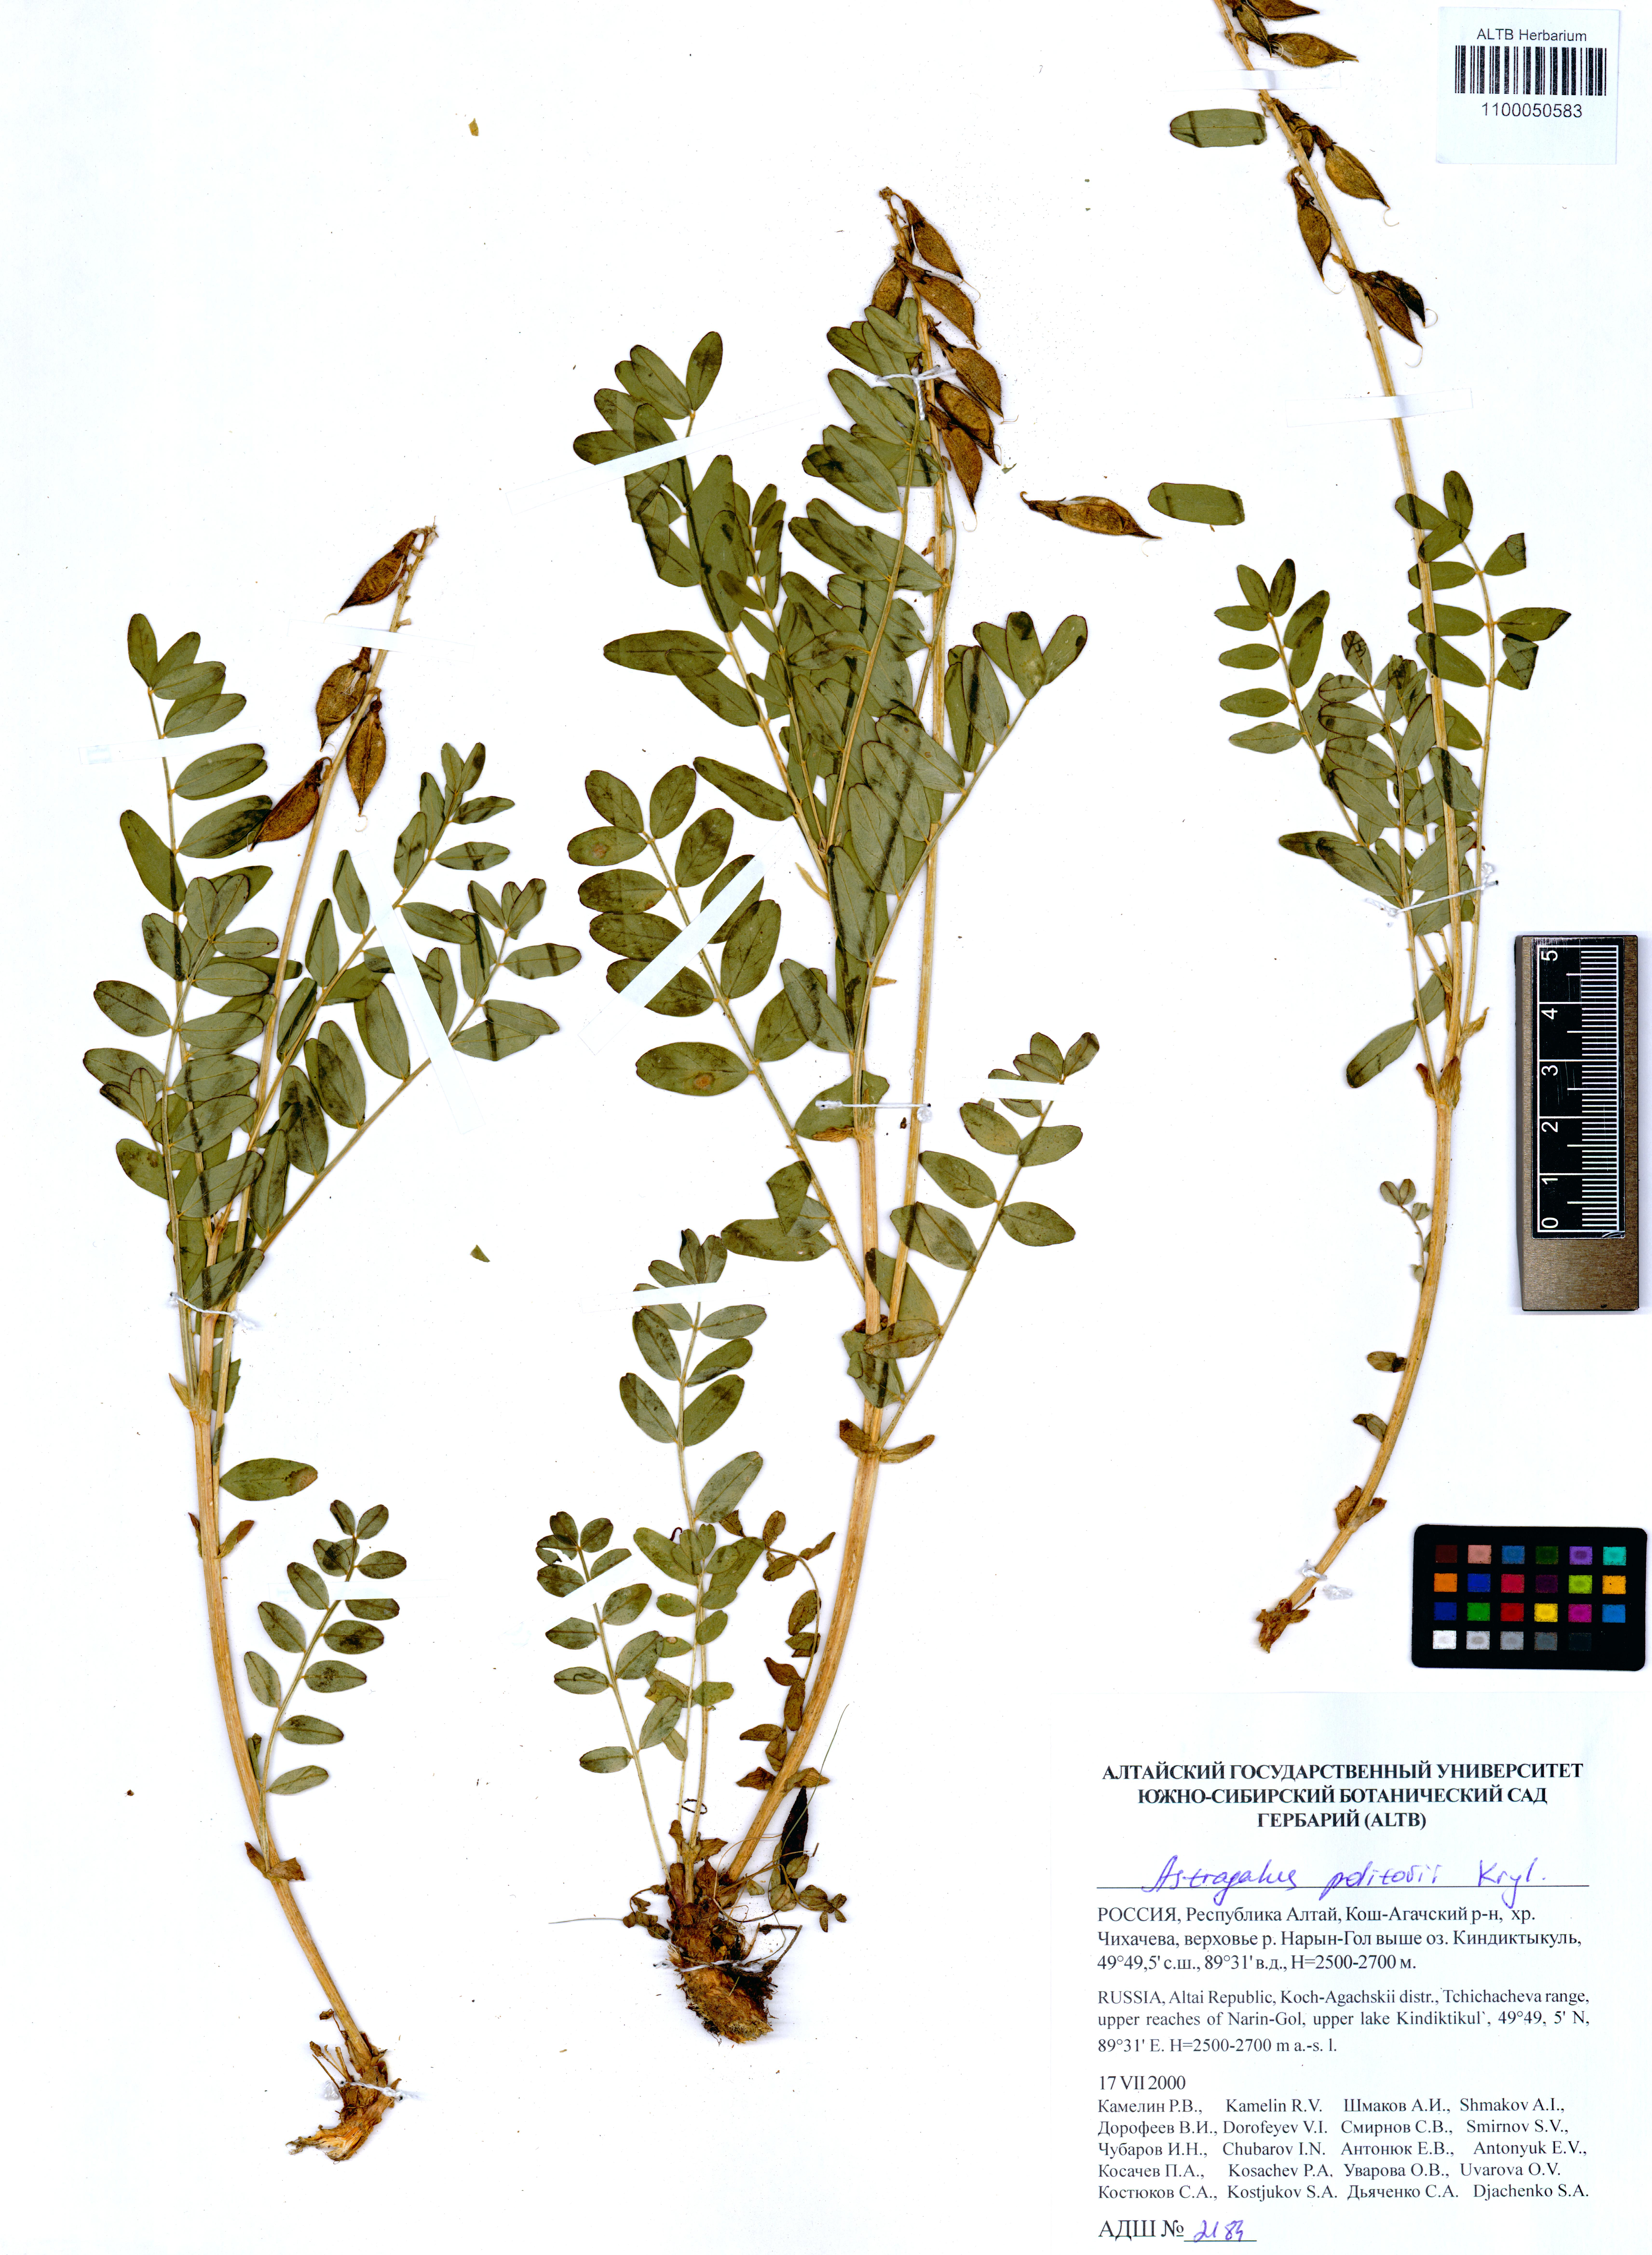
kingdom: Plantae
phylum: Tracheophyta
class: Magnoliopsida
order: Fabales
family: Fabaceae
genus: Astragalus
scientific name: Astragalus politovii
